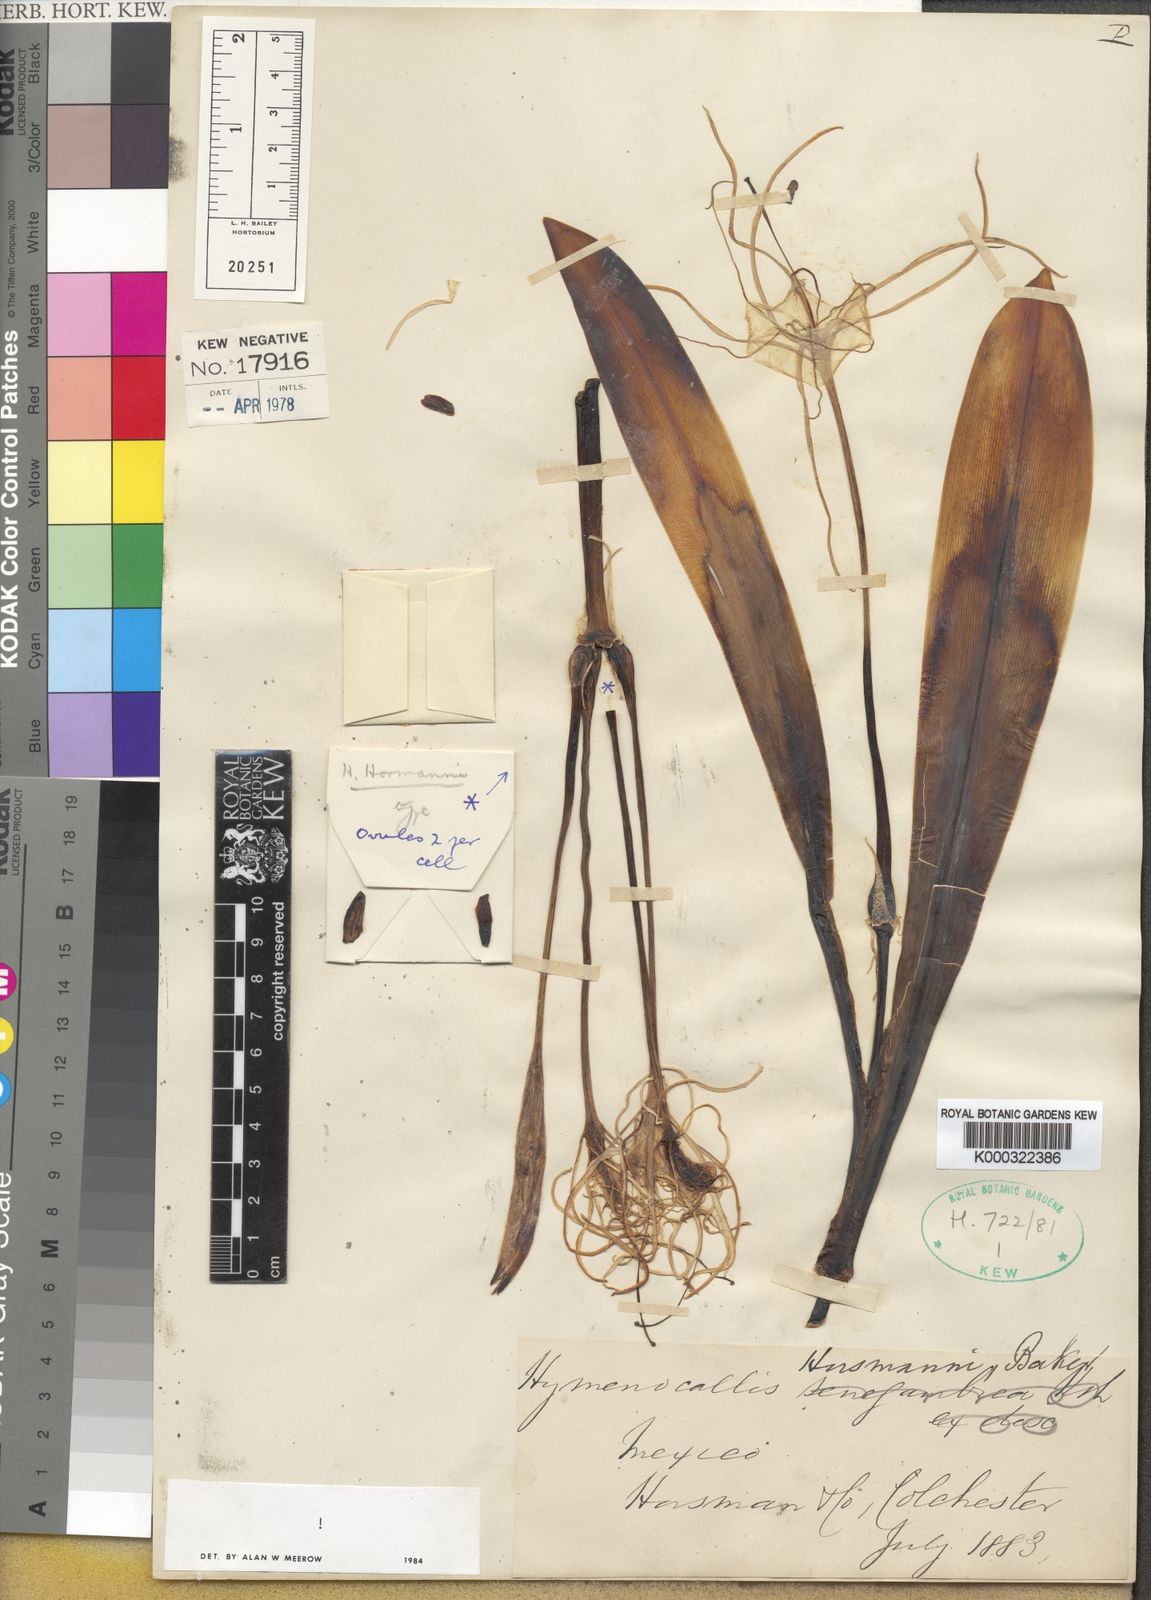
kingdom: Plantae
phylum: Tracheophyta
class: Liliopsida
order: Asparagales
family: Amaryllidaceae
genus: Hymenocallis
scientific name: Hymenocallis choretis
